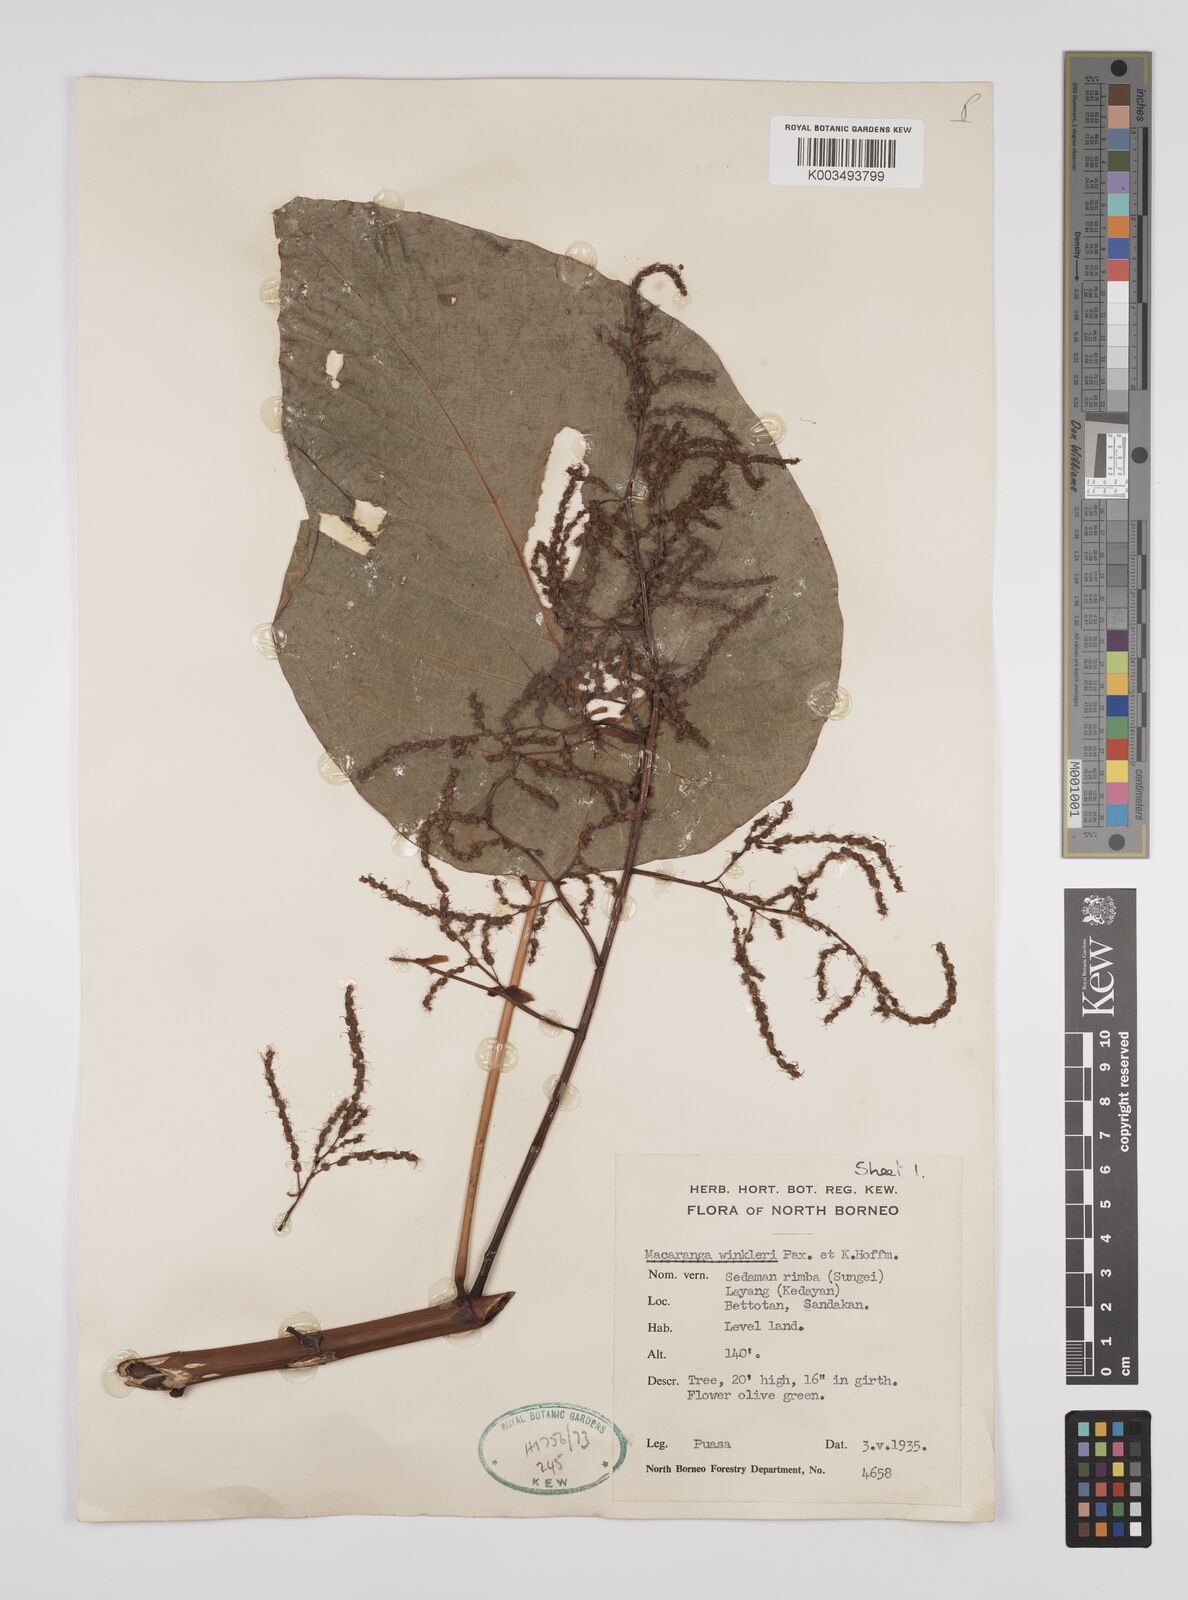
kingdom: Plantae
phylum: Tracheophyta
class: Magnoliopsida
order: Malpighiales
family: Euphorbiaceae
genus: Macaranga
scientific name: Macaranga winkleri
